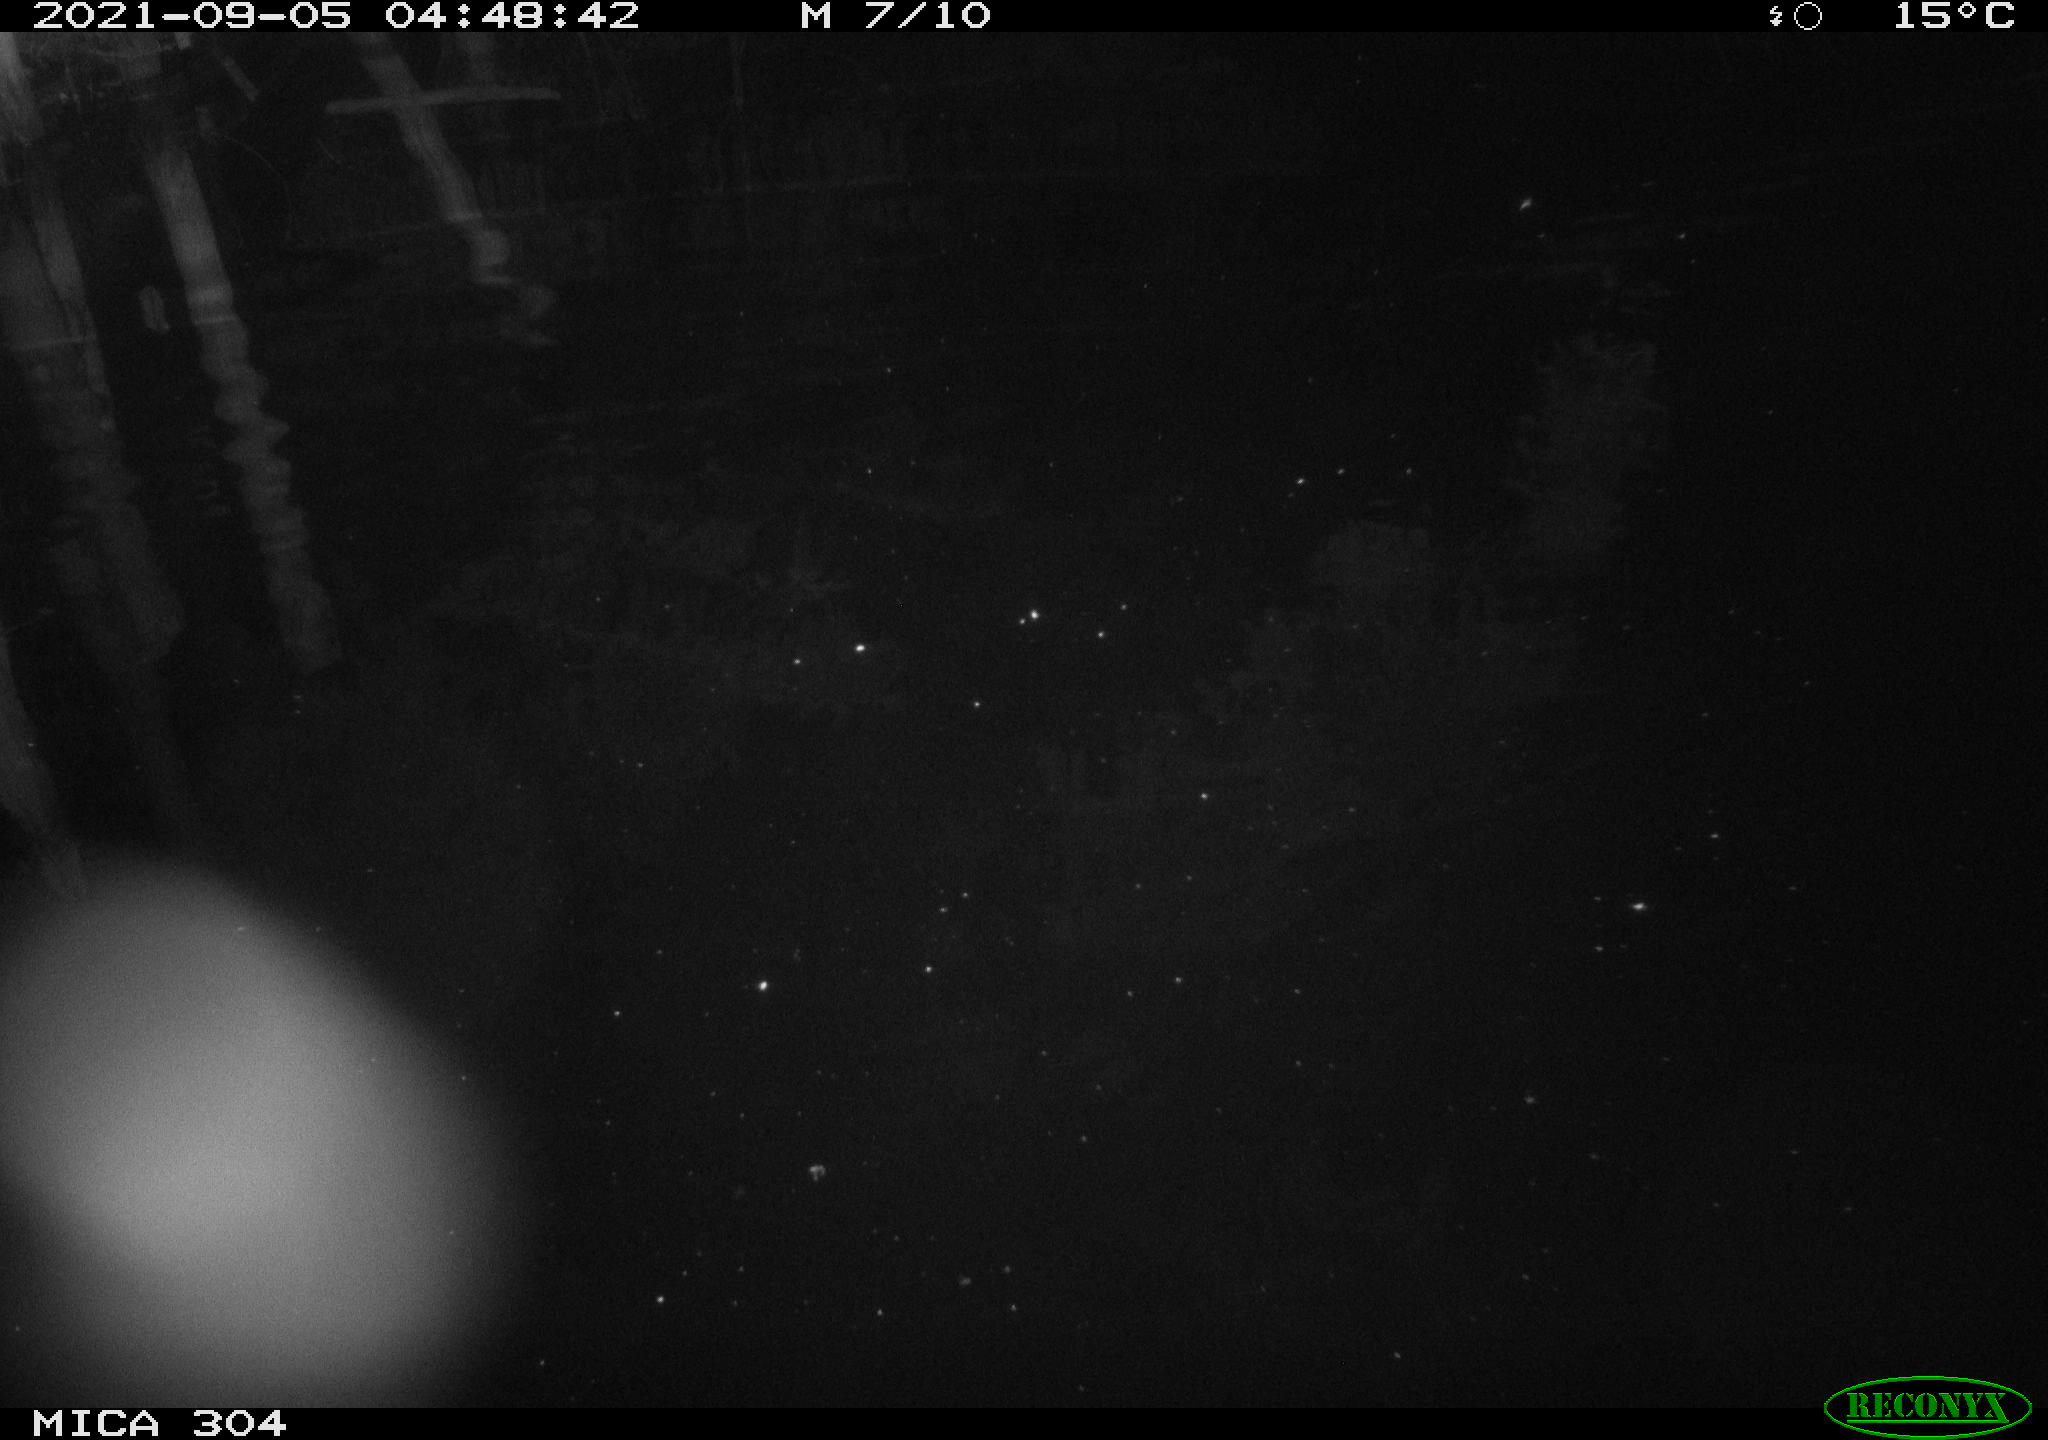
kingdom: Animalia
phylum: Chordata
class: Mammalia
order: Rodentia
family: Muridae
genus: Rattus
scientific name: Rattus norvegicus
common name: Brown rat
